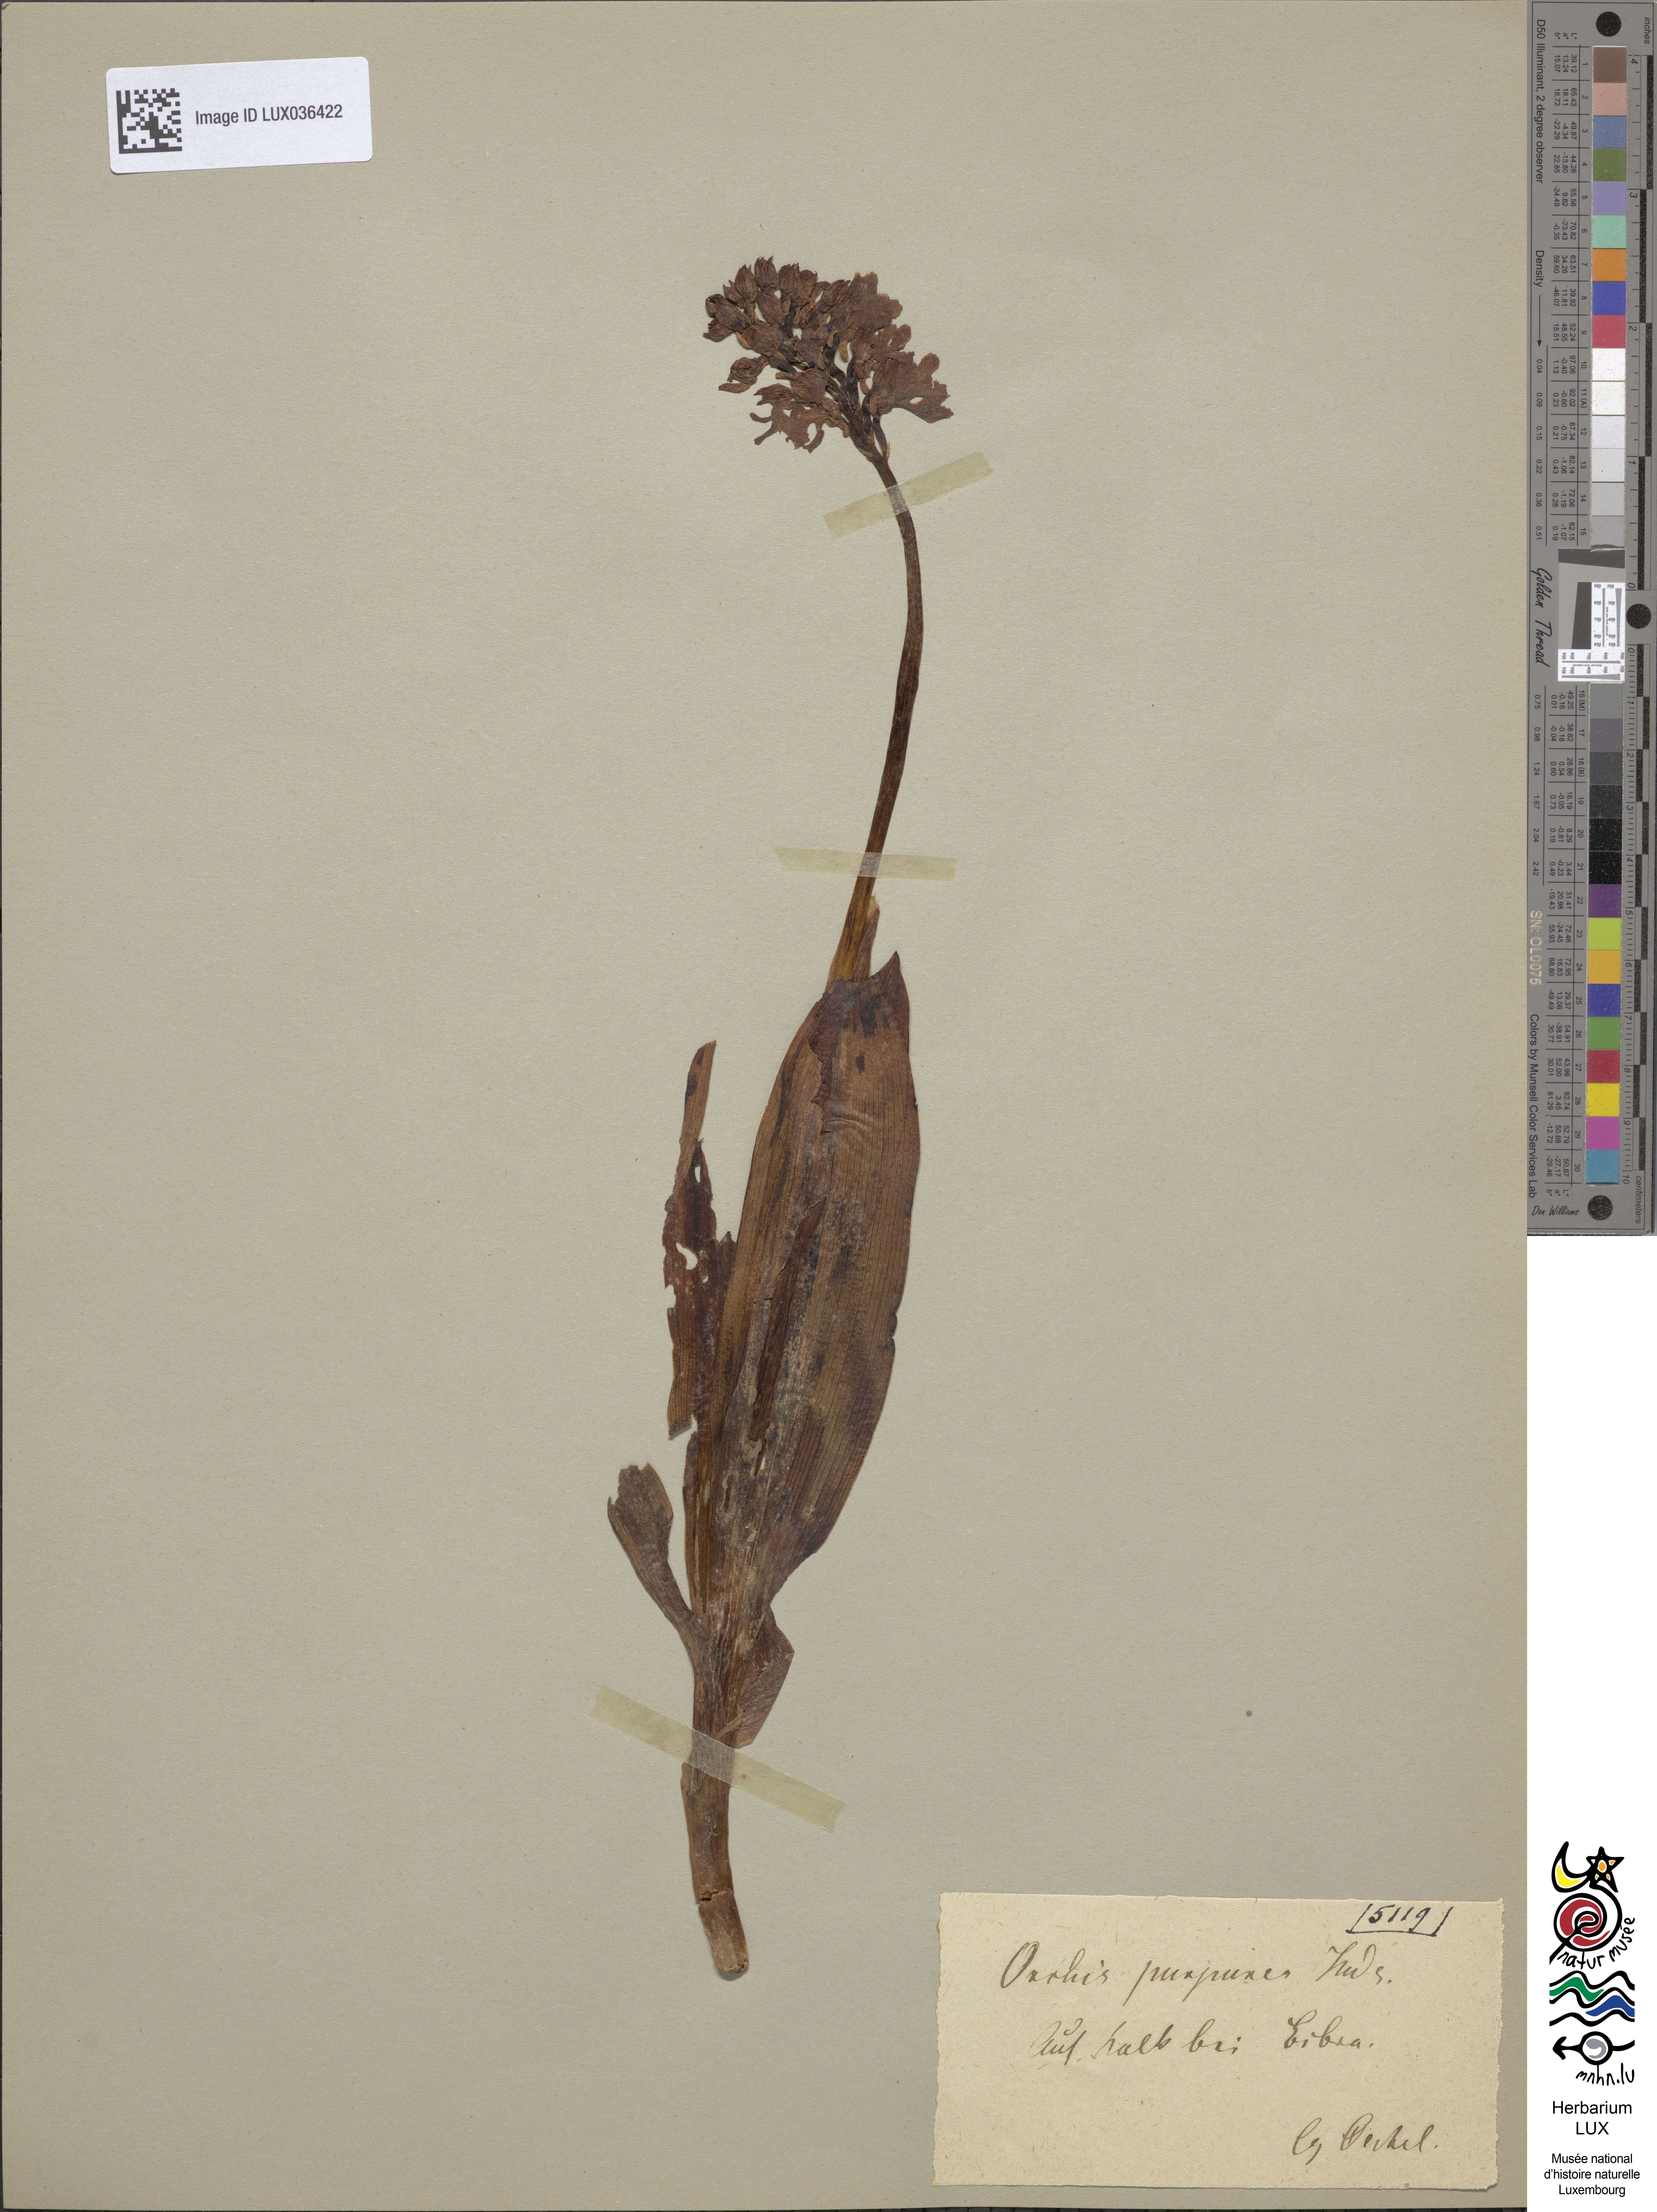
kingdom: Plantae
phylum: Tracheophyta
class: Liliopsida
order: Asparagales
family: Orchidaceae
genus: Orchis
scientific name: Orchis purpurea
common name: Lady orchid
